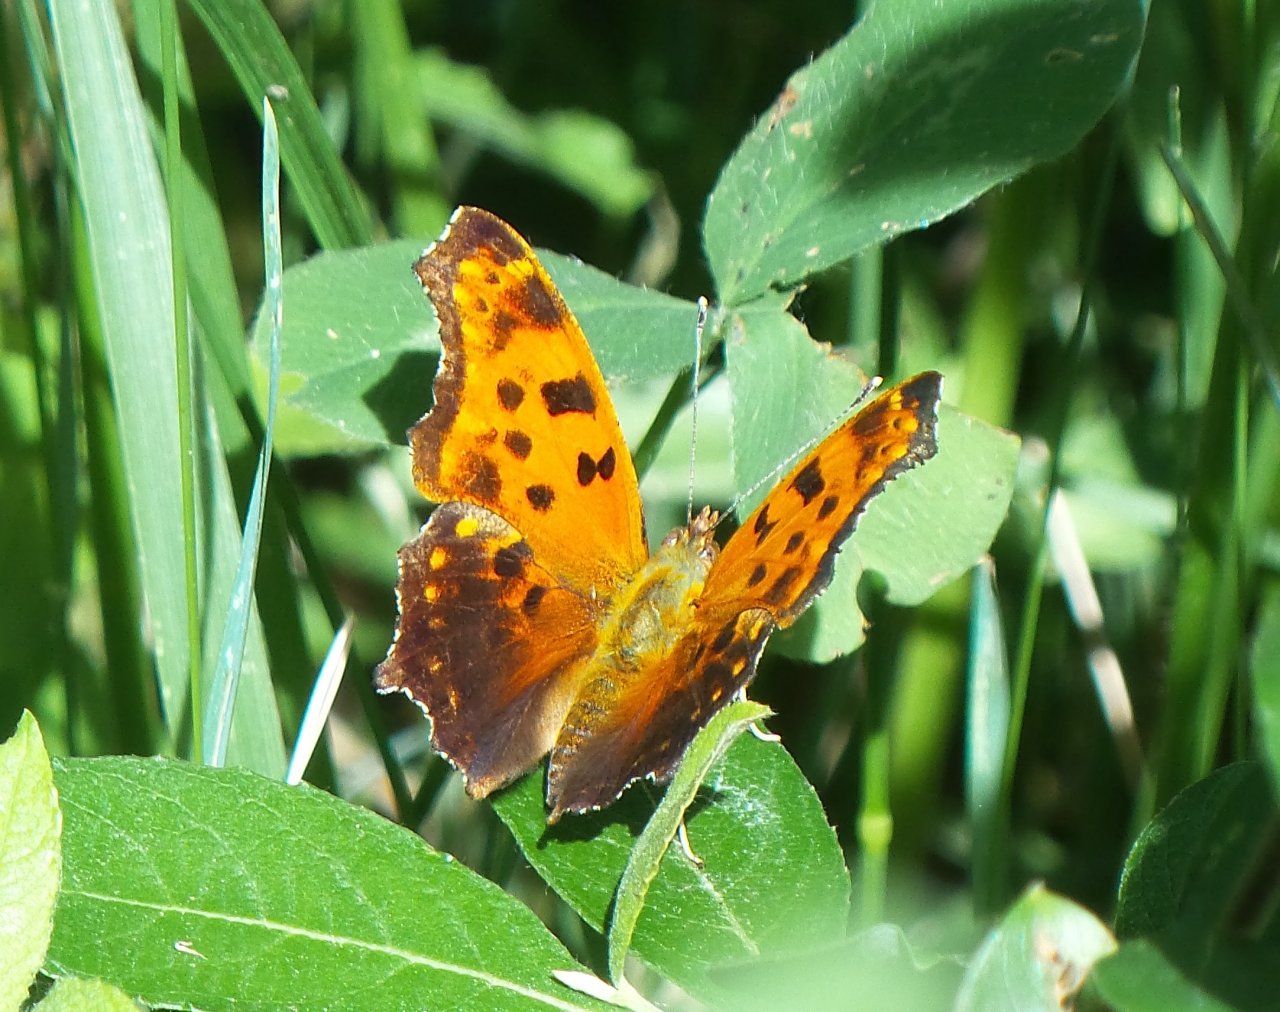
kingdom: Animalia
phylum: Arthropoda
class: Insecta
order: Lepidoptera
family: Nymphalidae
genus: Polygonia
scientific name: Polygonia comma
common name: Eastern Comma
